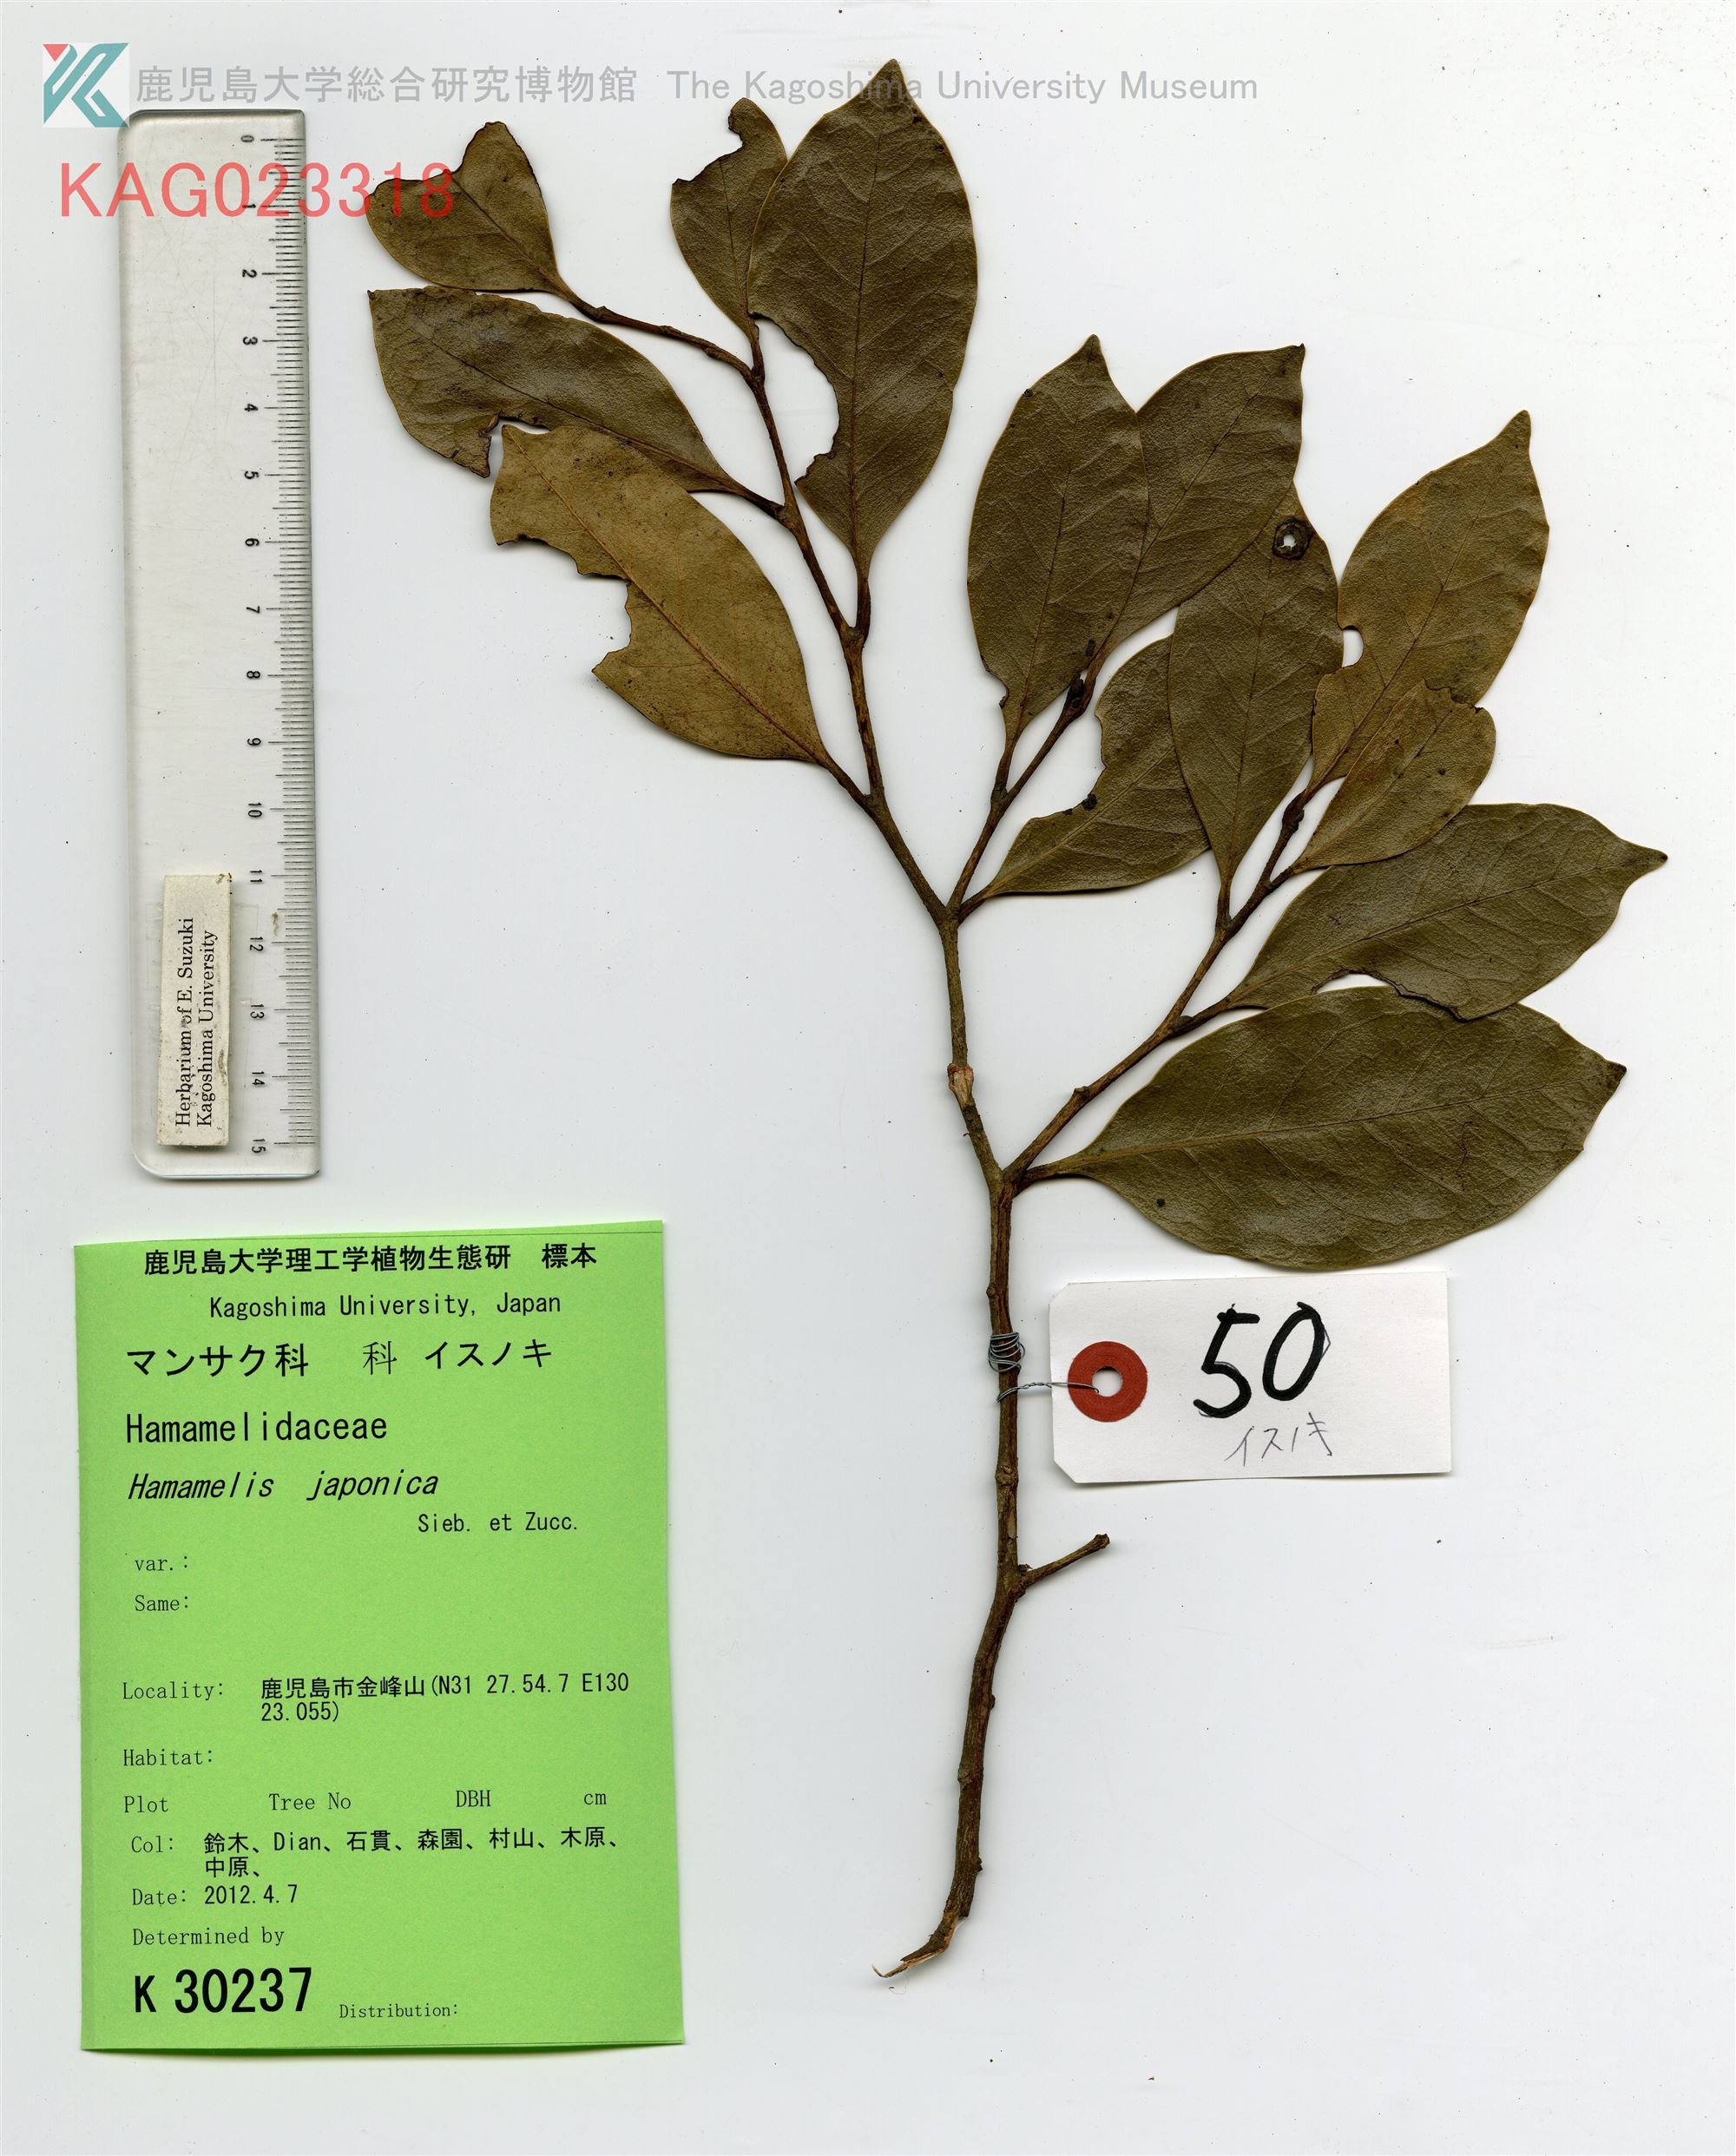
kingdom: Plantae
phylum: Tracheophyta
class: Magnoliopsida
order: Saxifragales
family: Hamamelidaceae
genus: Distylium
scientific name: Distylium racemosum
